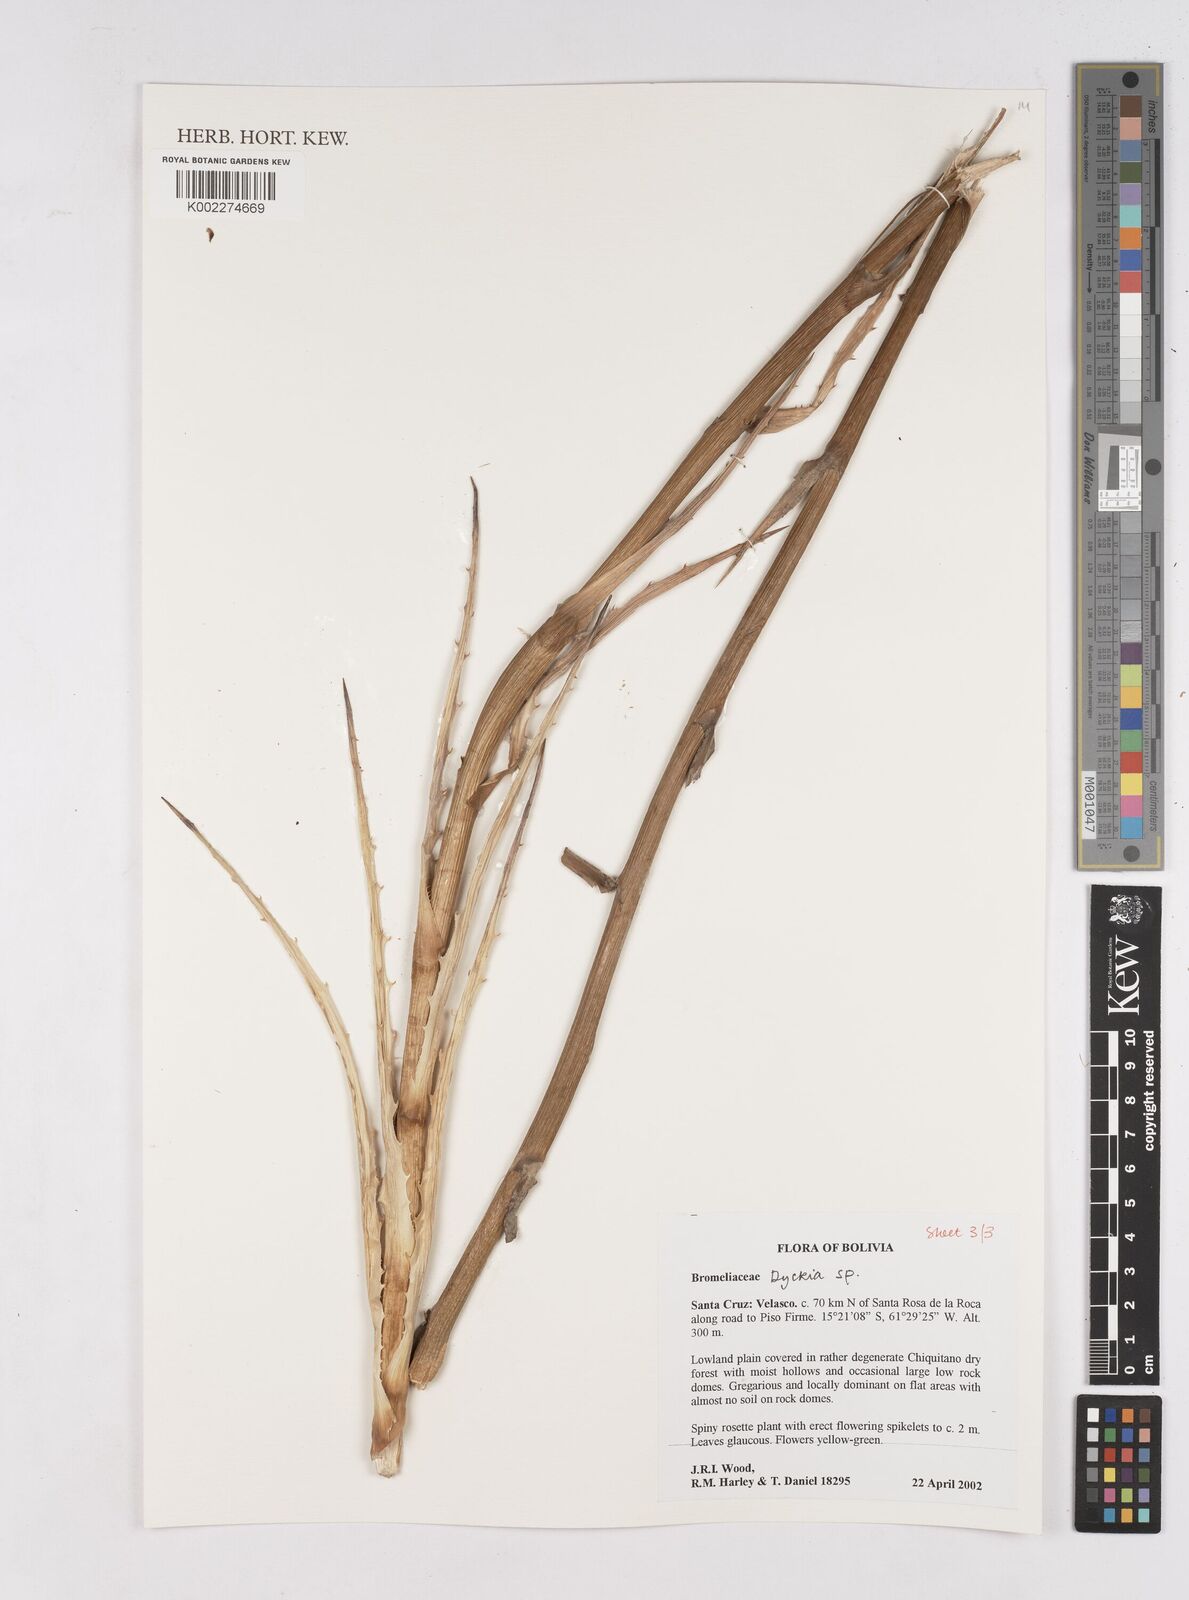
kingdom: Plantae
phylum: Tracheophyta
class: Liliopsida
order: Poales
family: Bromeliaceae
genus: Dyckia
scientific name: Dyckia
